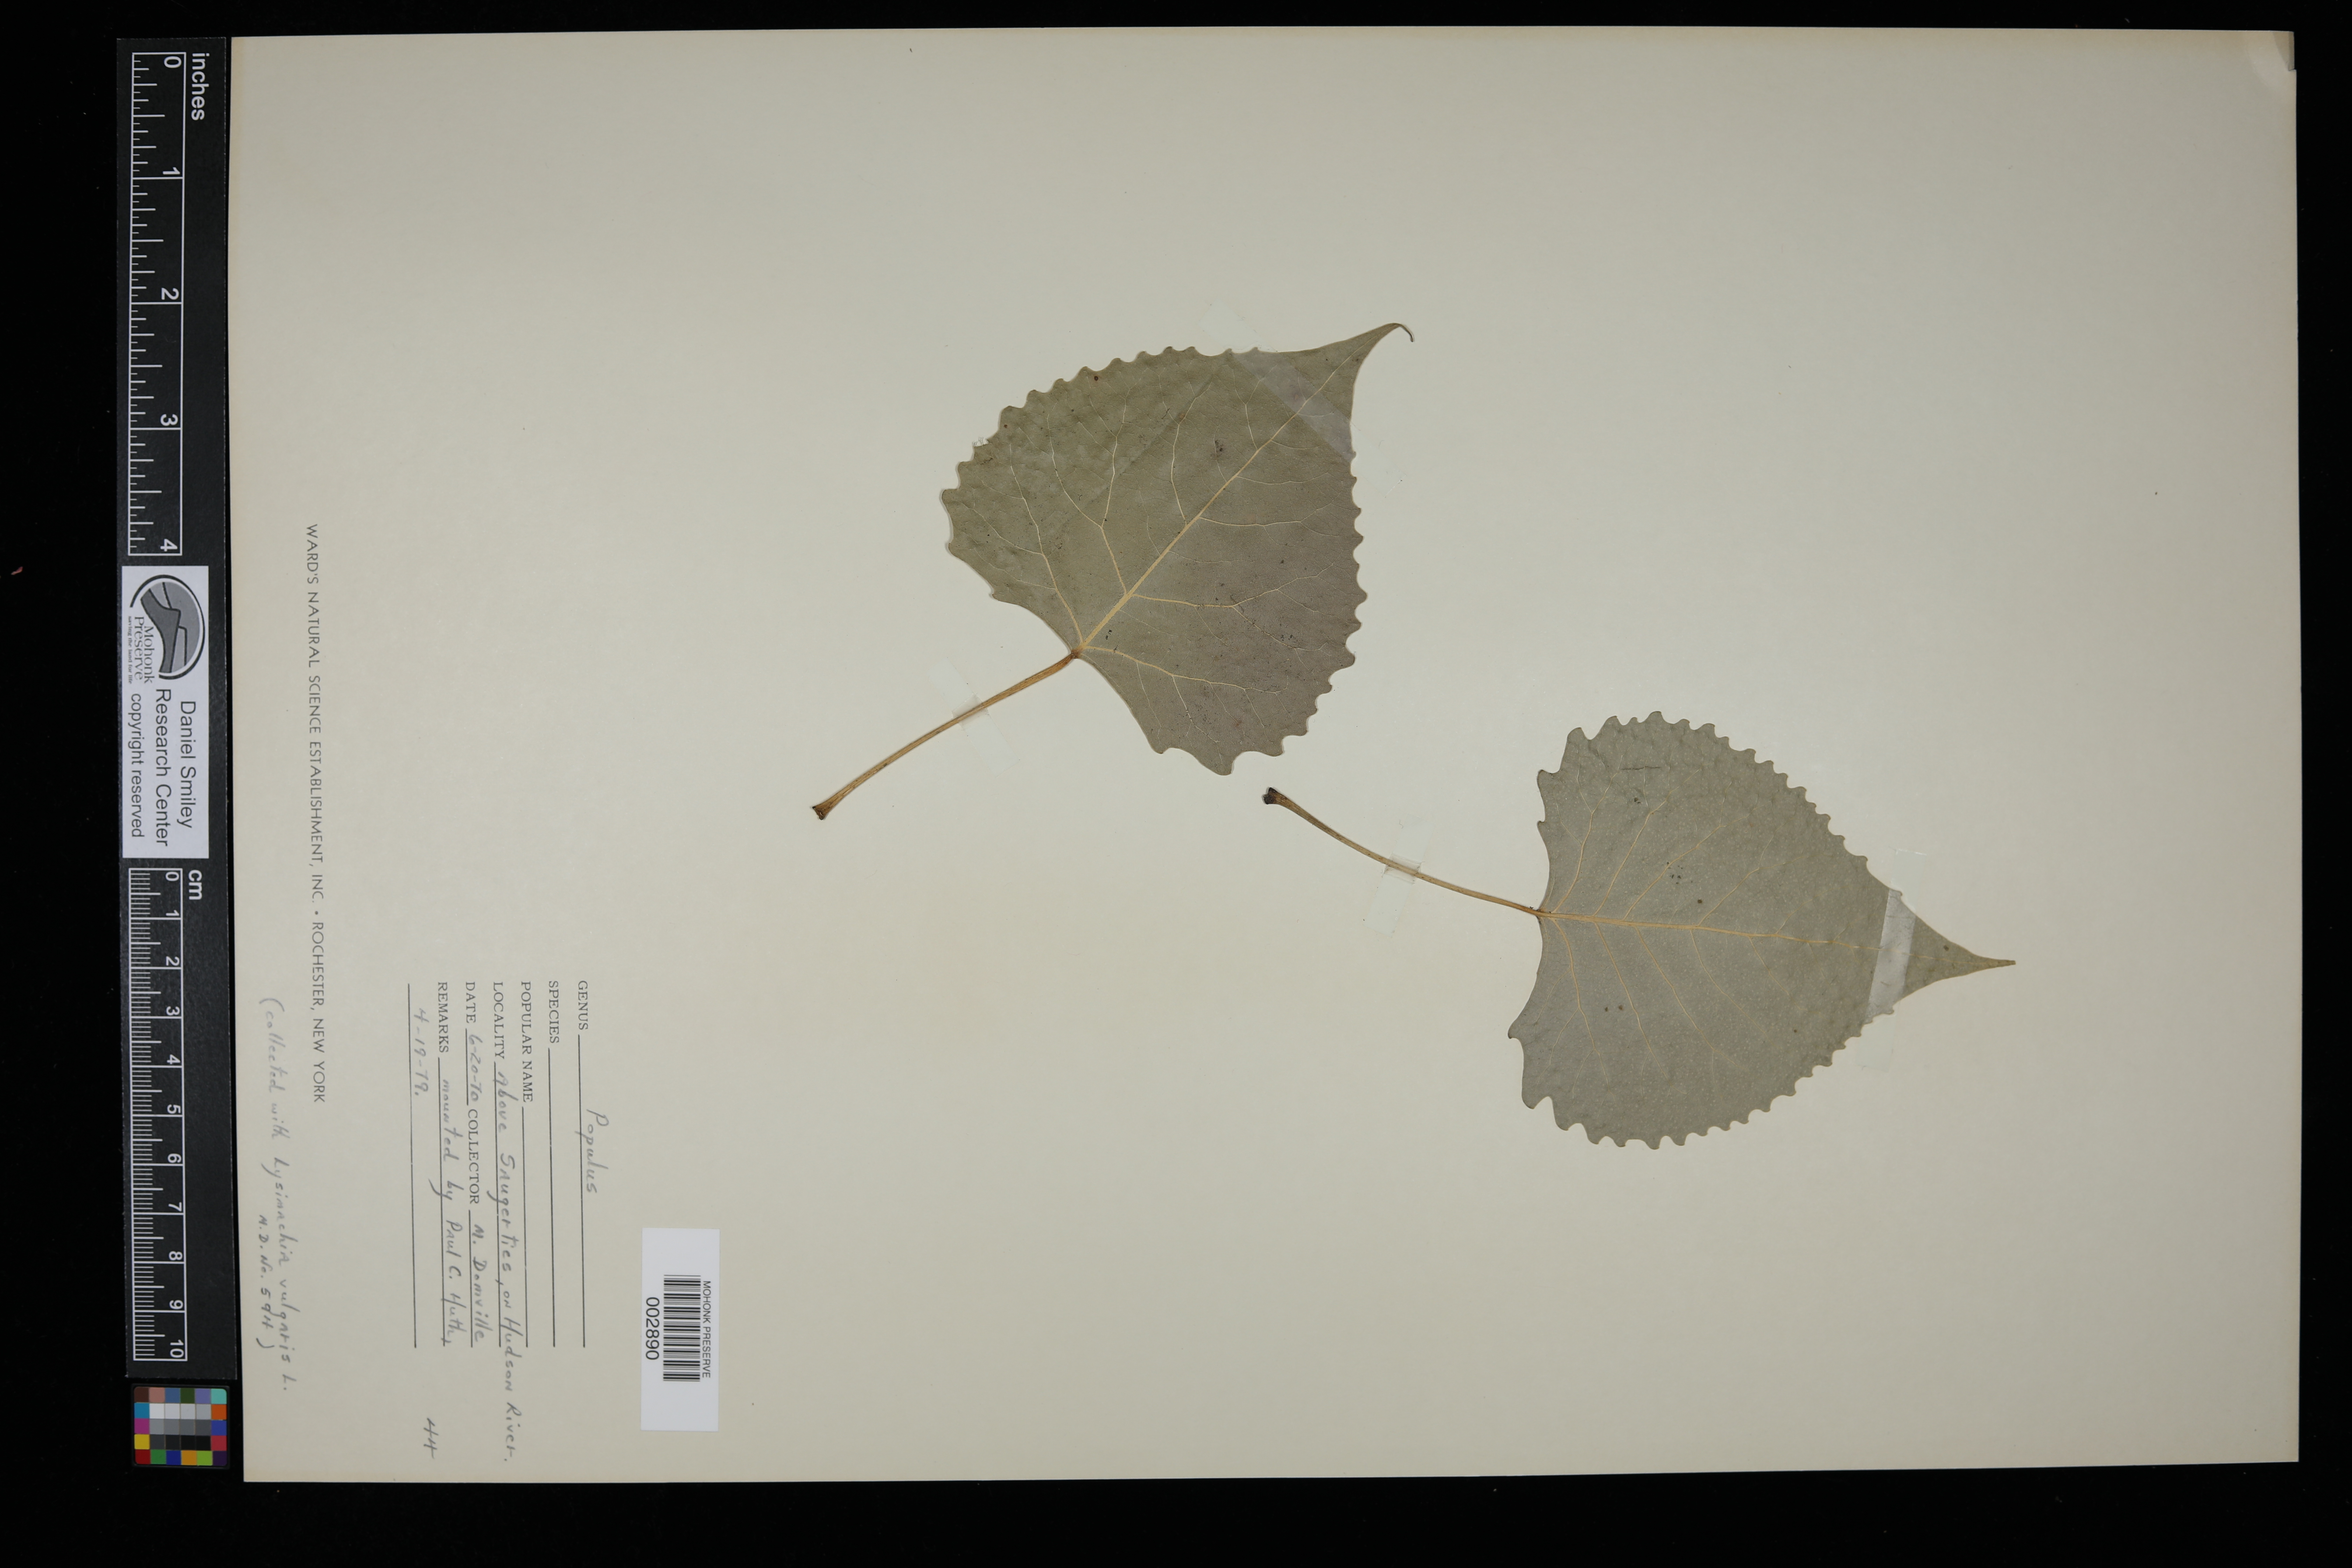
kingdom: Plantae
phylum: Tracheophyta
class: Magnoliopsida
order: Malpighiales
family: Salicaceae
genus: Populus
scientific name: Populus
